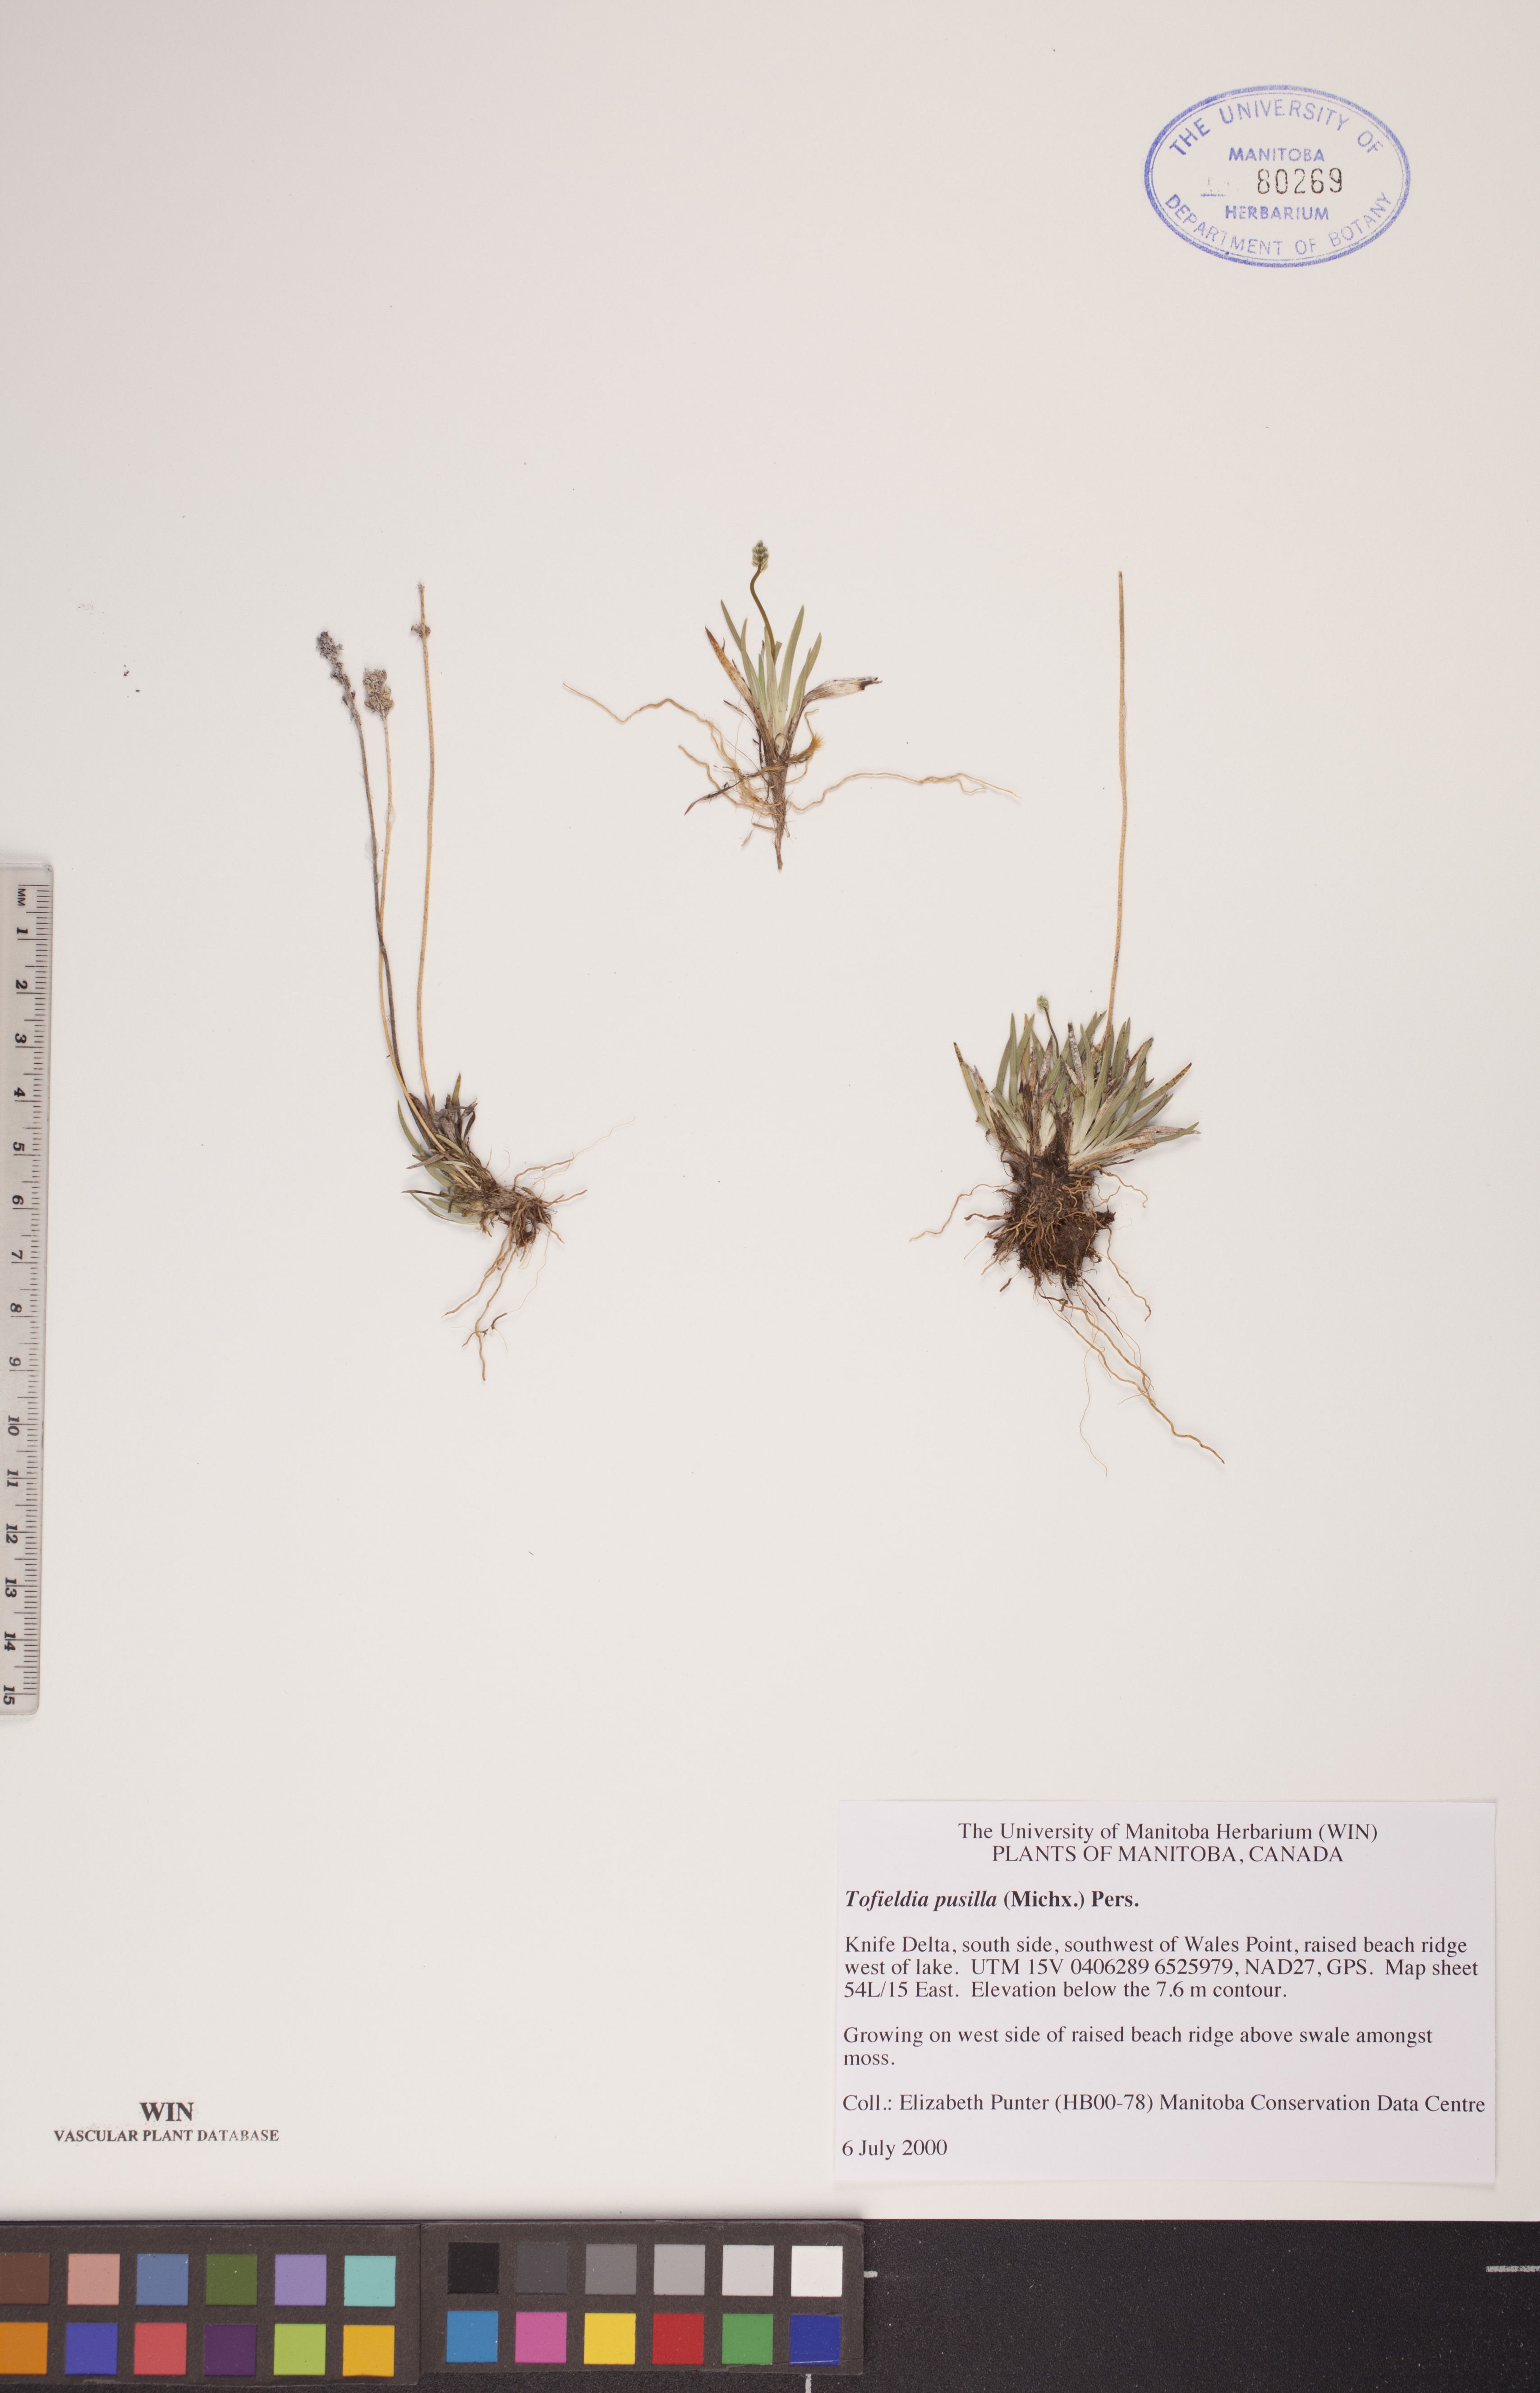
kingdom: Plantae
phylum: Tracheophyta
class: Liliopsida
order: Alismatales
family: Tofieldiaceae
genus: Tofieldia
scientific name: Tofieldia pusilla
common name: Scottish false asphodel
